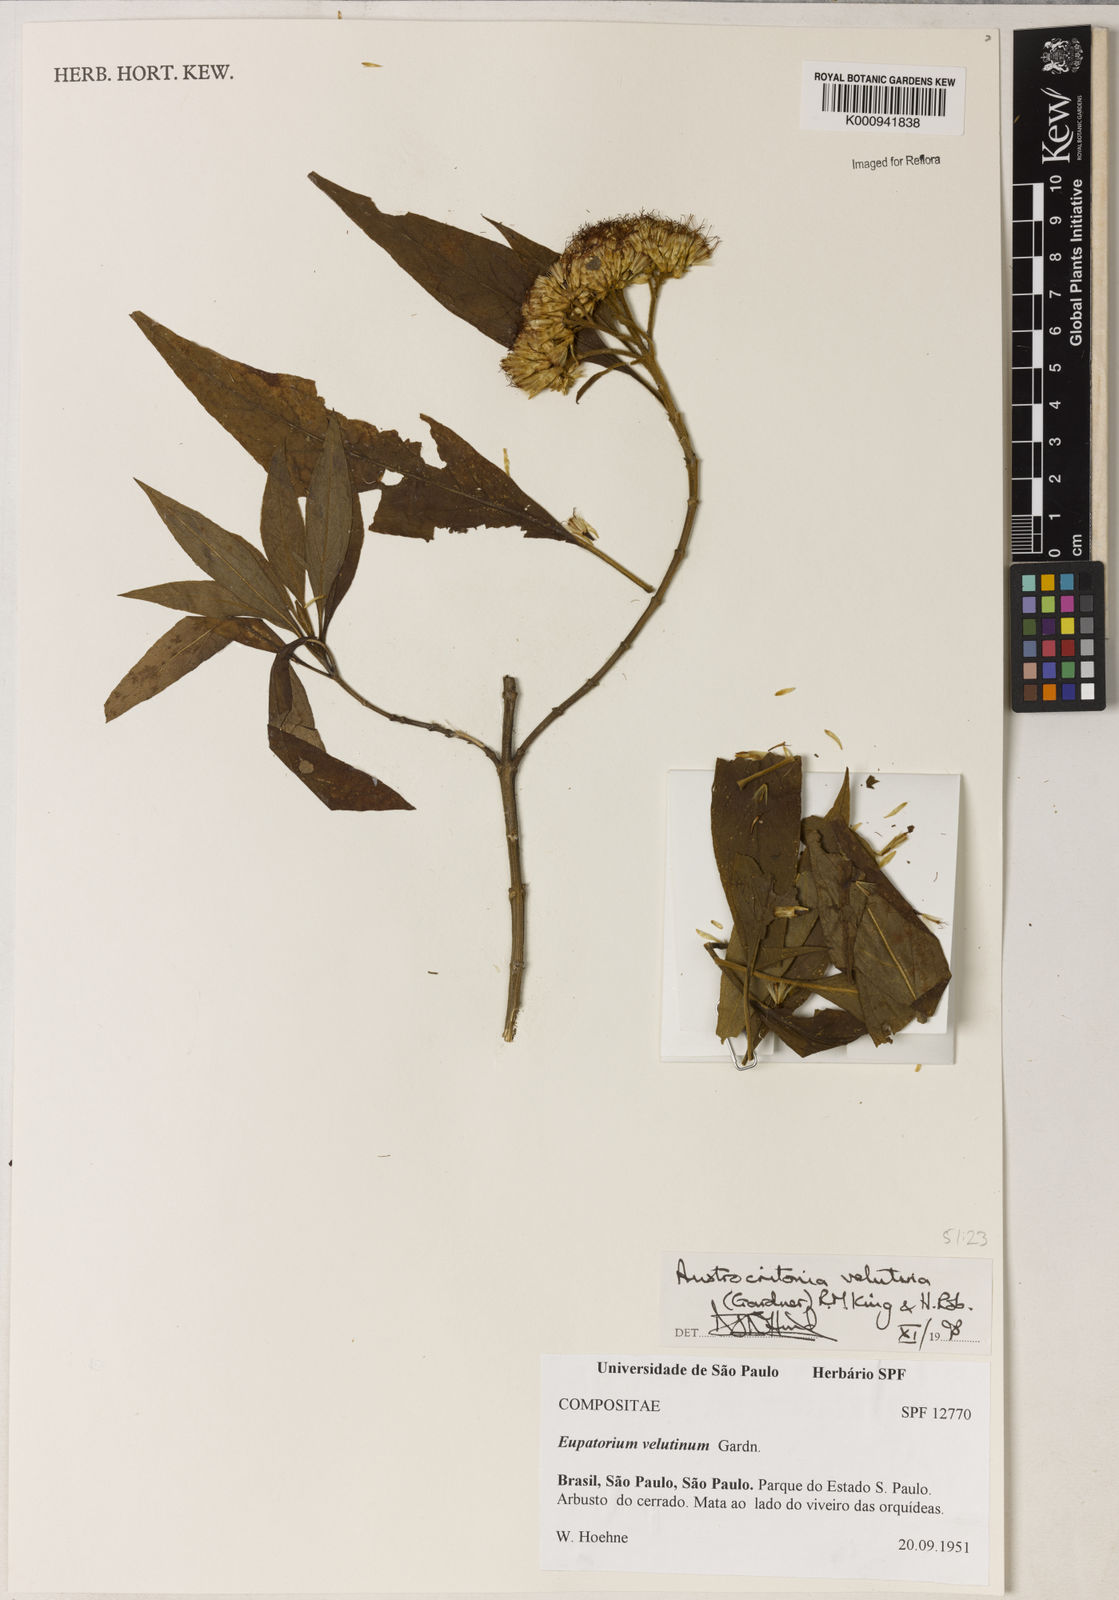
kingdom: Plantae
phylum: Tracheophyta
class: Magnoliopsida
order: Asterales
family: Asteraceae
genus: Austrocritonia
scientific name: Austrocritonia velutina
